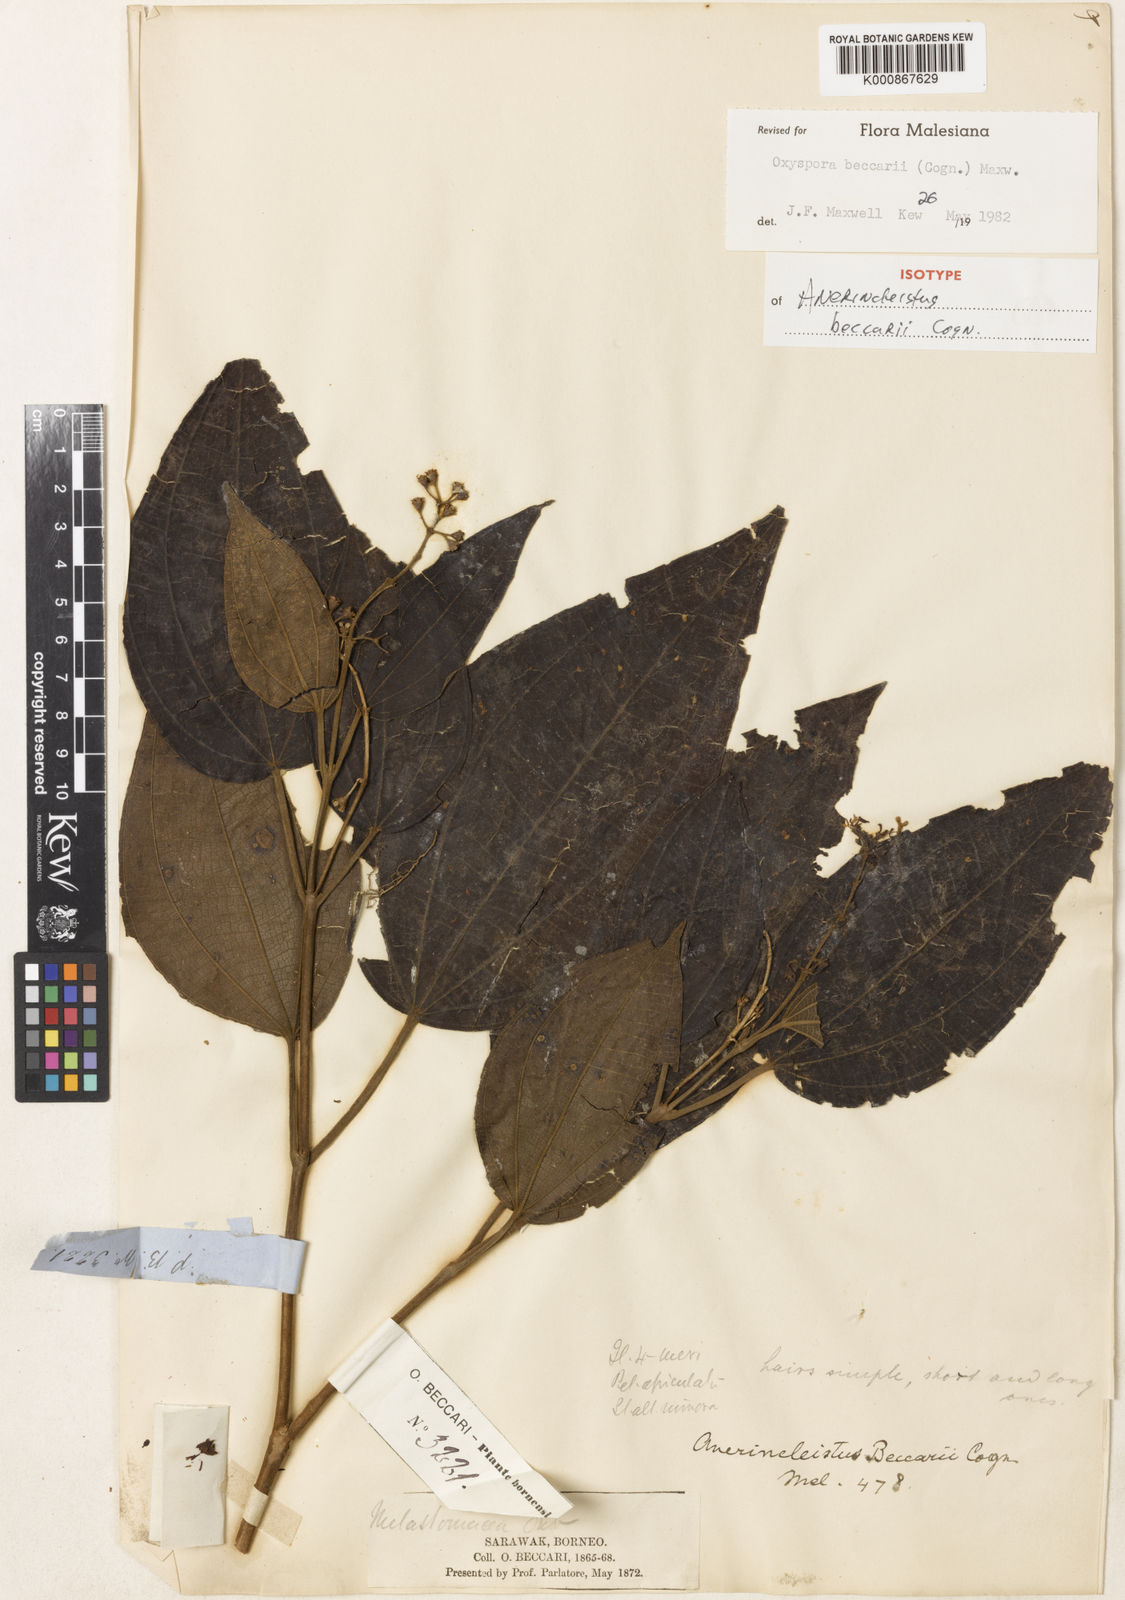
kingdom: Plantae
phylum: Tracheophyta
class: Magnoliopsida
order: Myrtales
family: Melastomataceae
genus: Oxyspora
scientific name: Oxyspora beccarii
